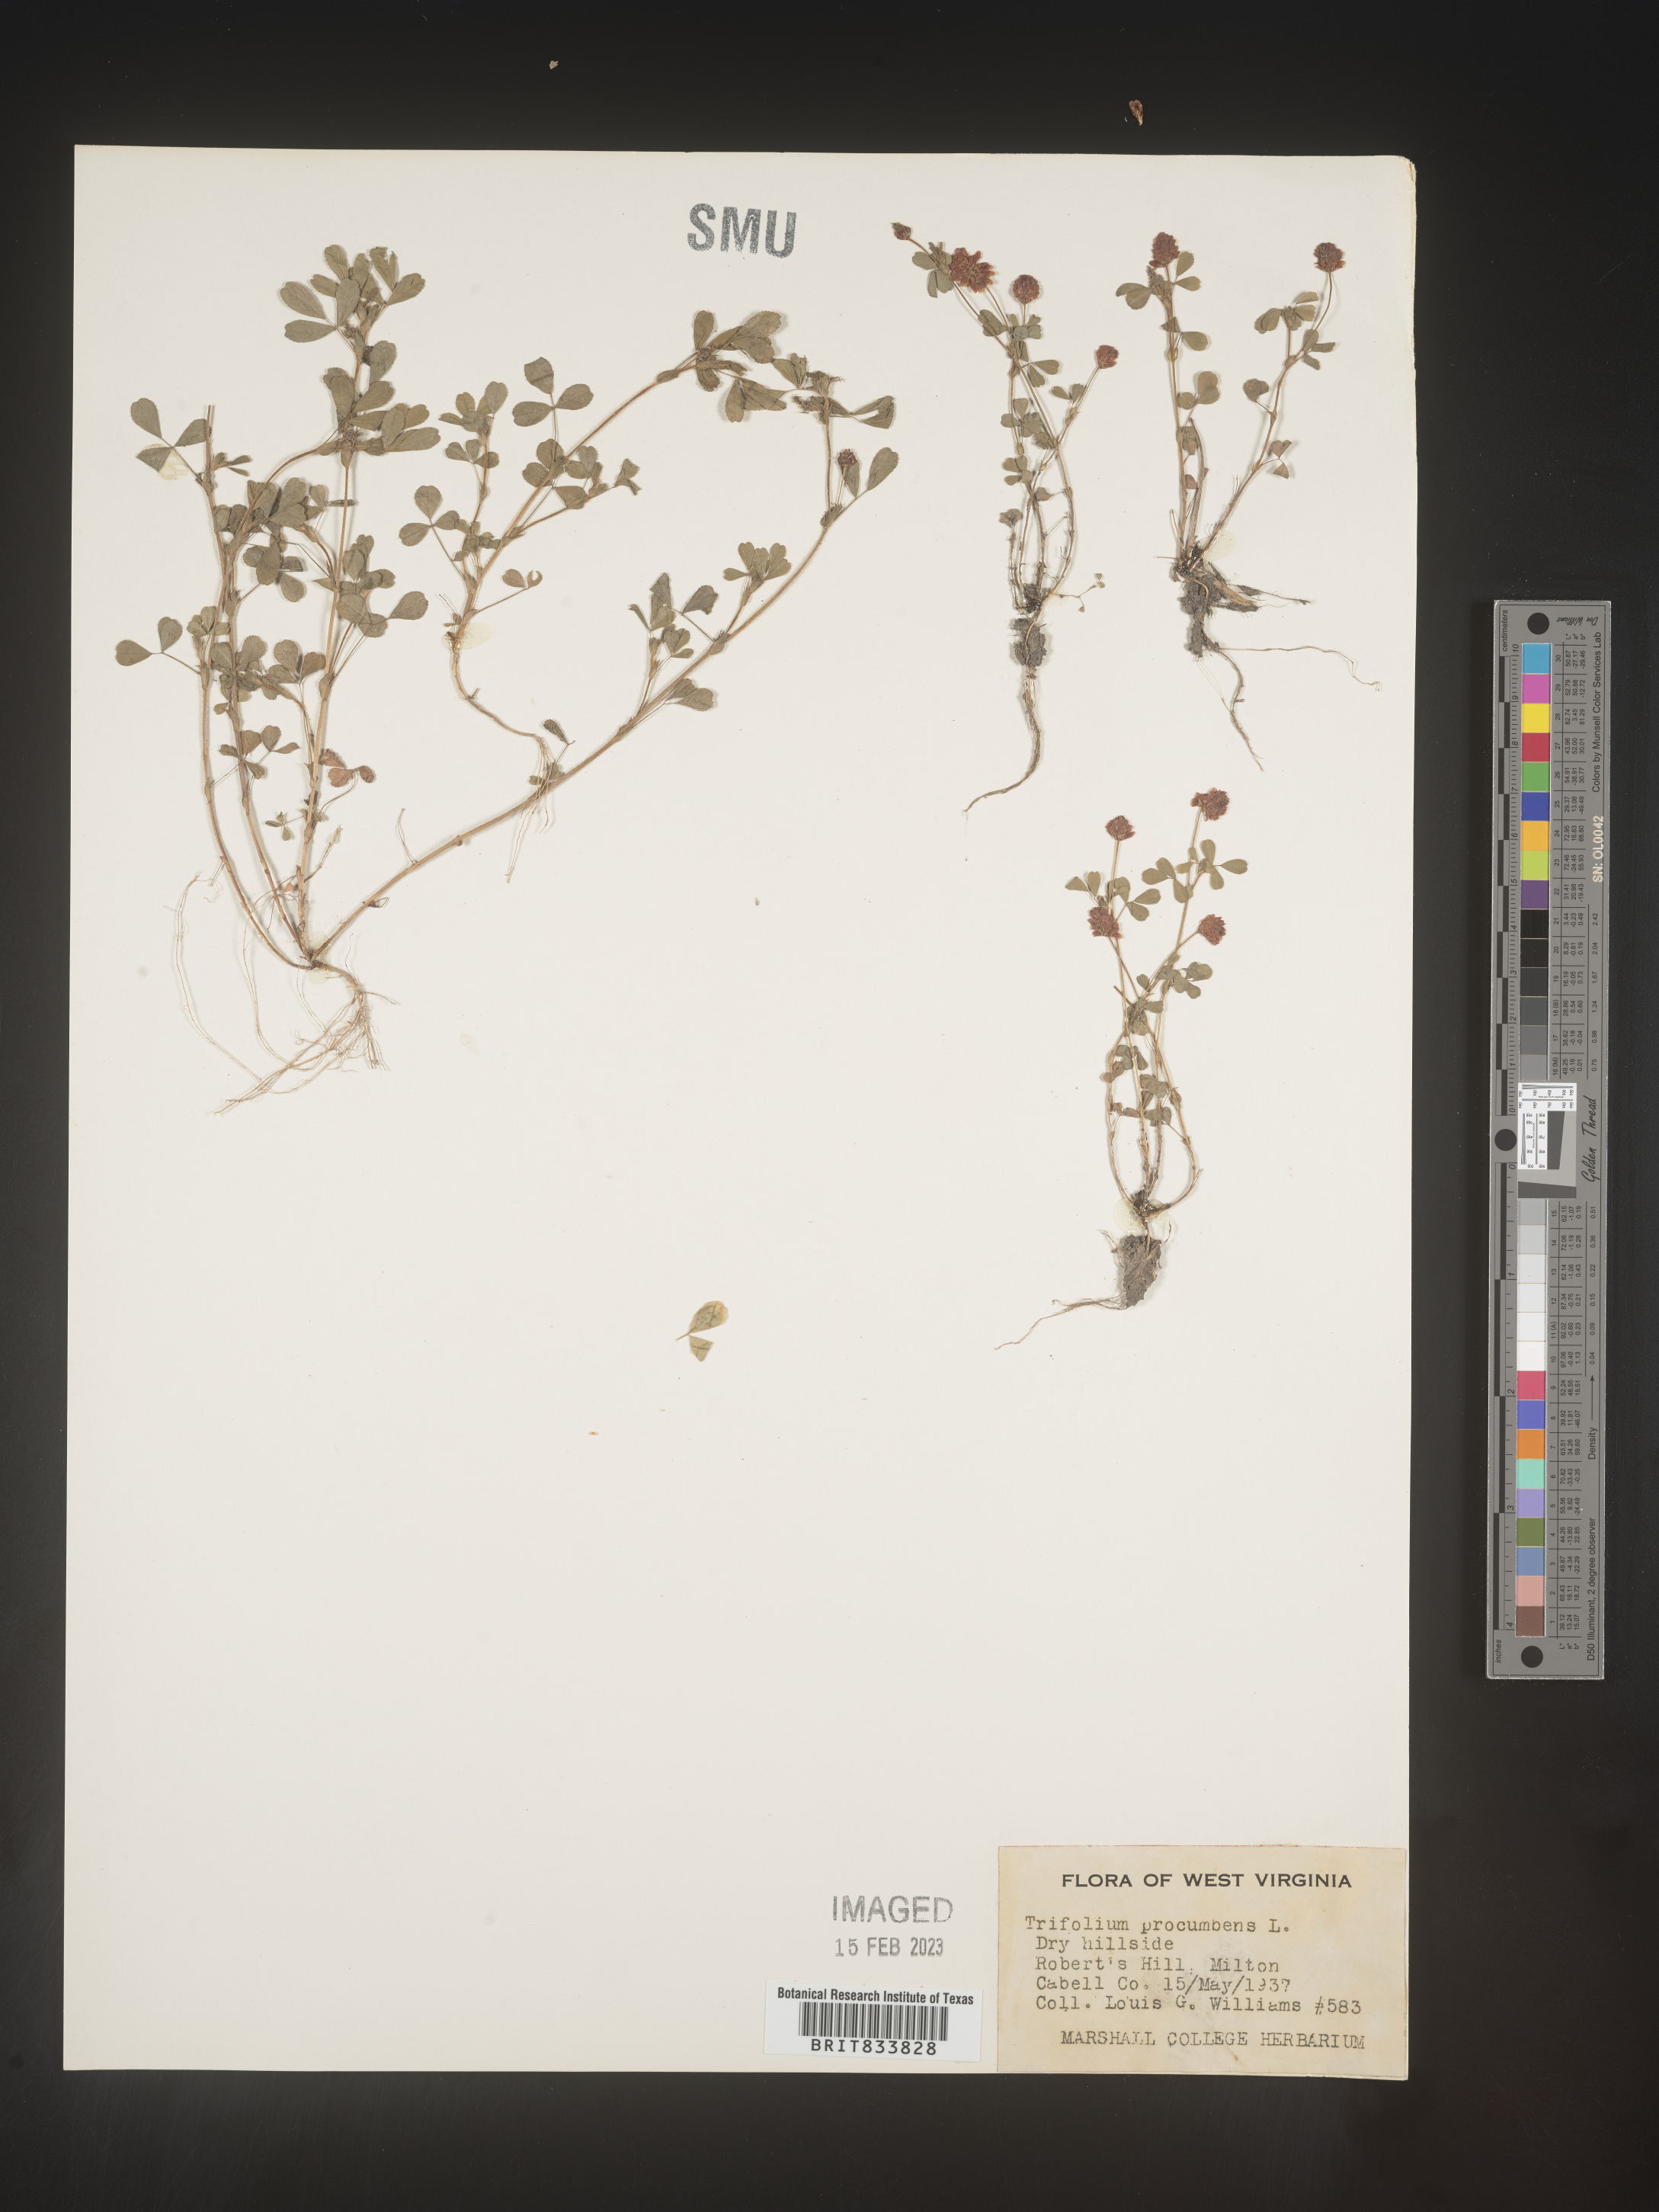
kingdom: Plantae
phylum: Tracheophyta
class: Magnoliopsida
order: Fabales
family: Fabaceae
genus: Trifolium
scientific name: Trifolium campestre
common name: Field clover
